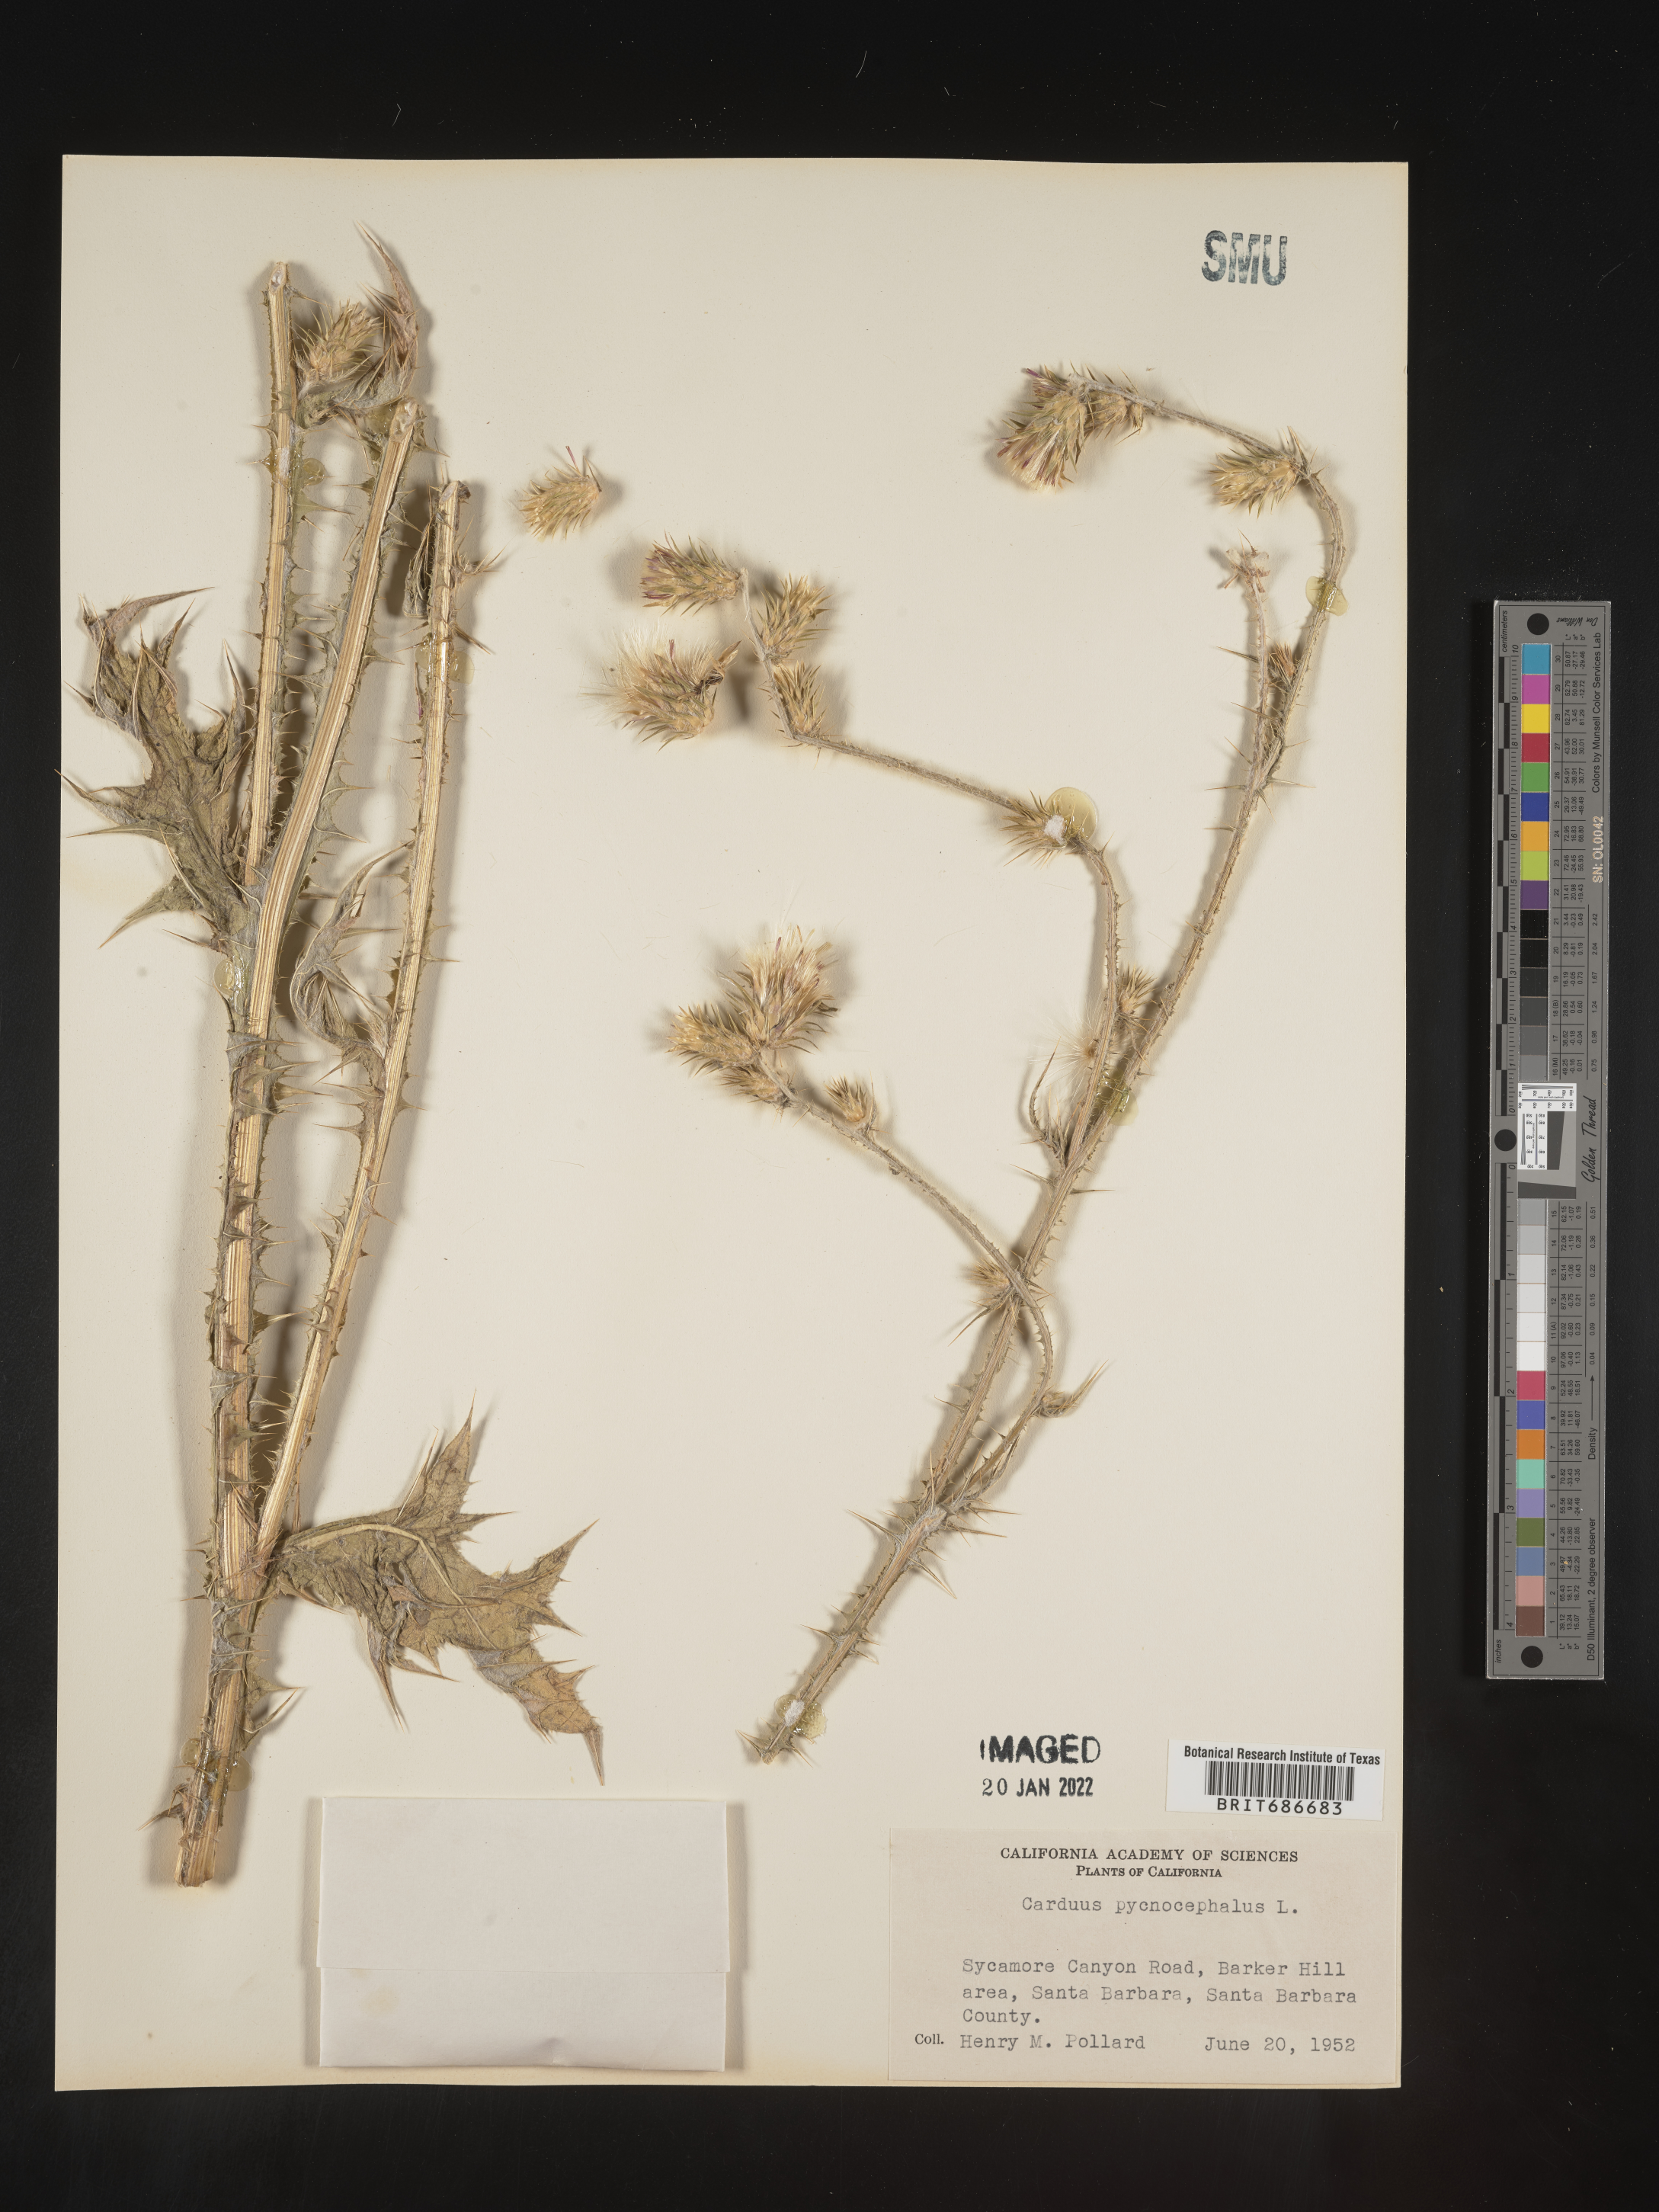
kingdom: Plantae
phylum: Tracheophyta
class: Magnoliopsida
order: Asterales
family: Asteraceae
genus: Carduus
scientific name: Carduus cephalanthus
